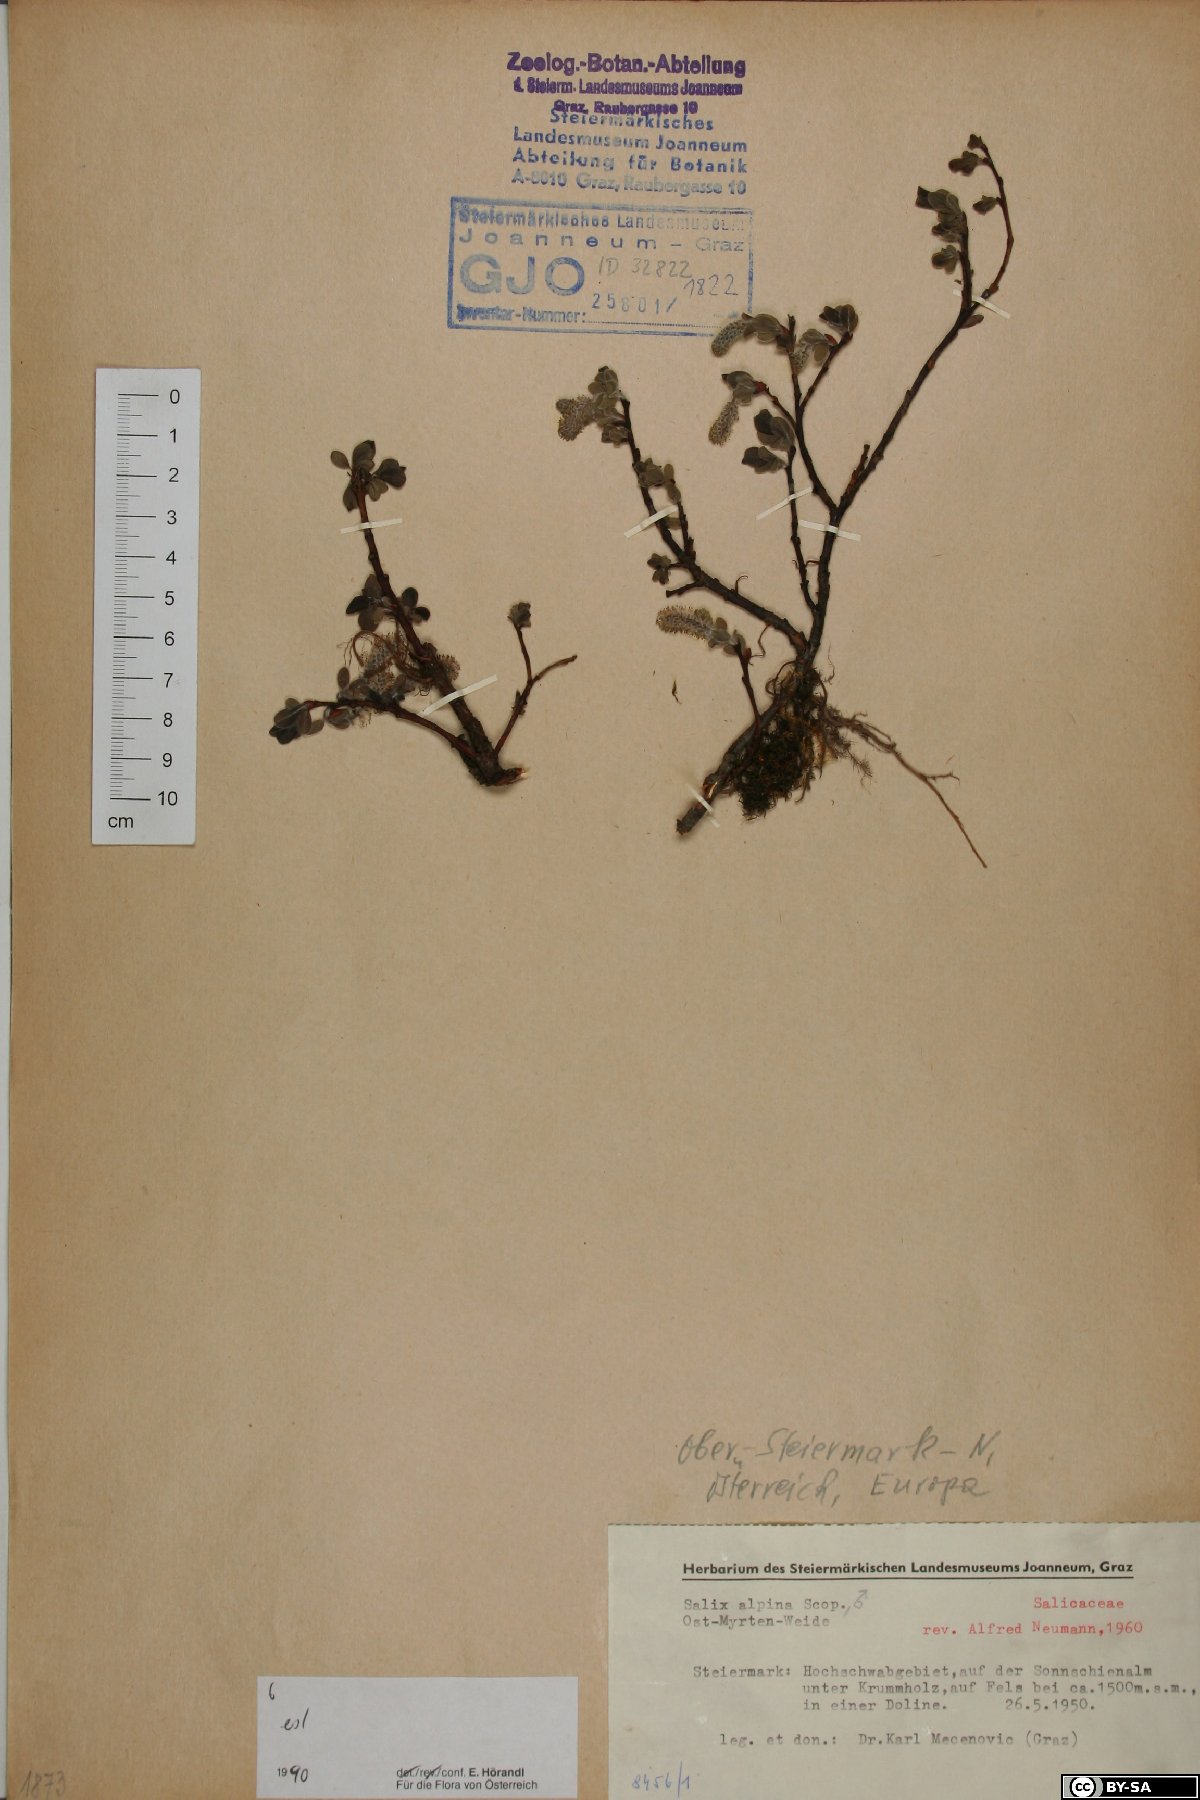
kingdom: Plantae
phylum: Tracheophyta
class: Magnoliopsida
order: Malpighiales
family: Salicaceae
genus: Salix
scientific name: Salix alpina
